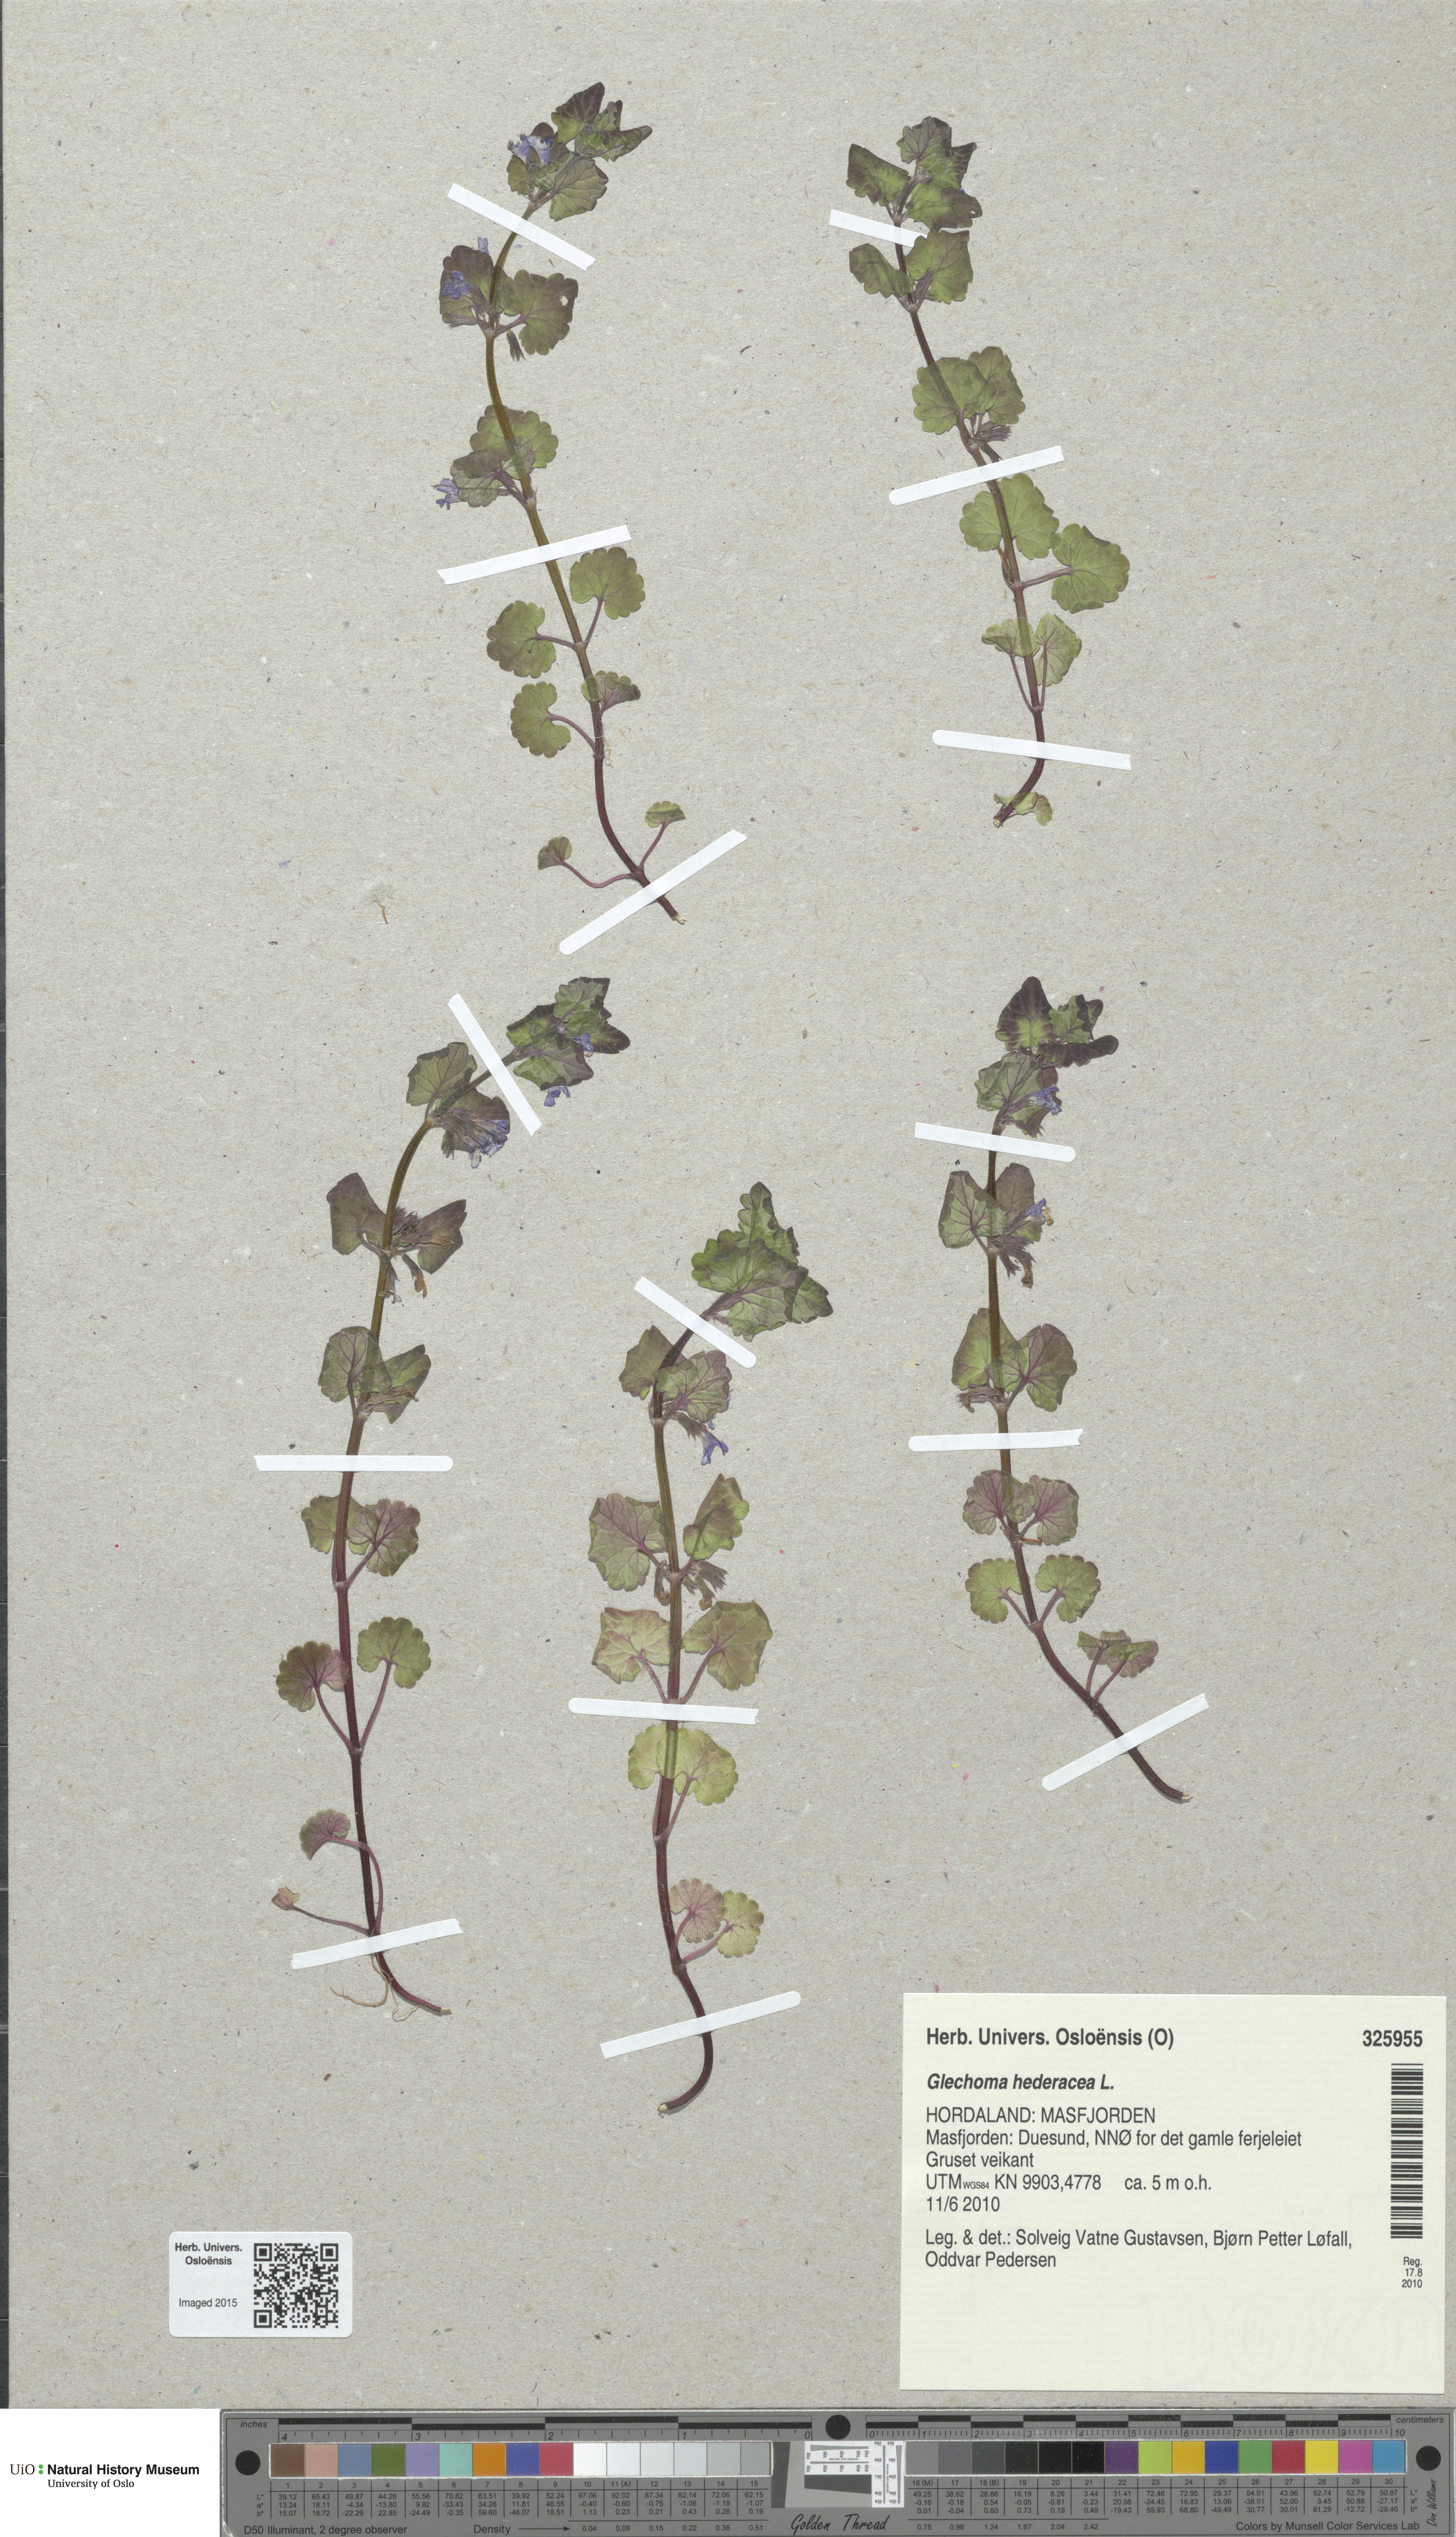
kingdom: Plantae
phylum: Tracheophyta
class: Magnoliopsida
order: Lamiales
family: Lamiaceae
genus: Glechoma
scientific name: Glechoma hederacea
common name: Ground ivy
